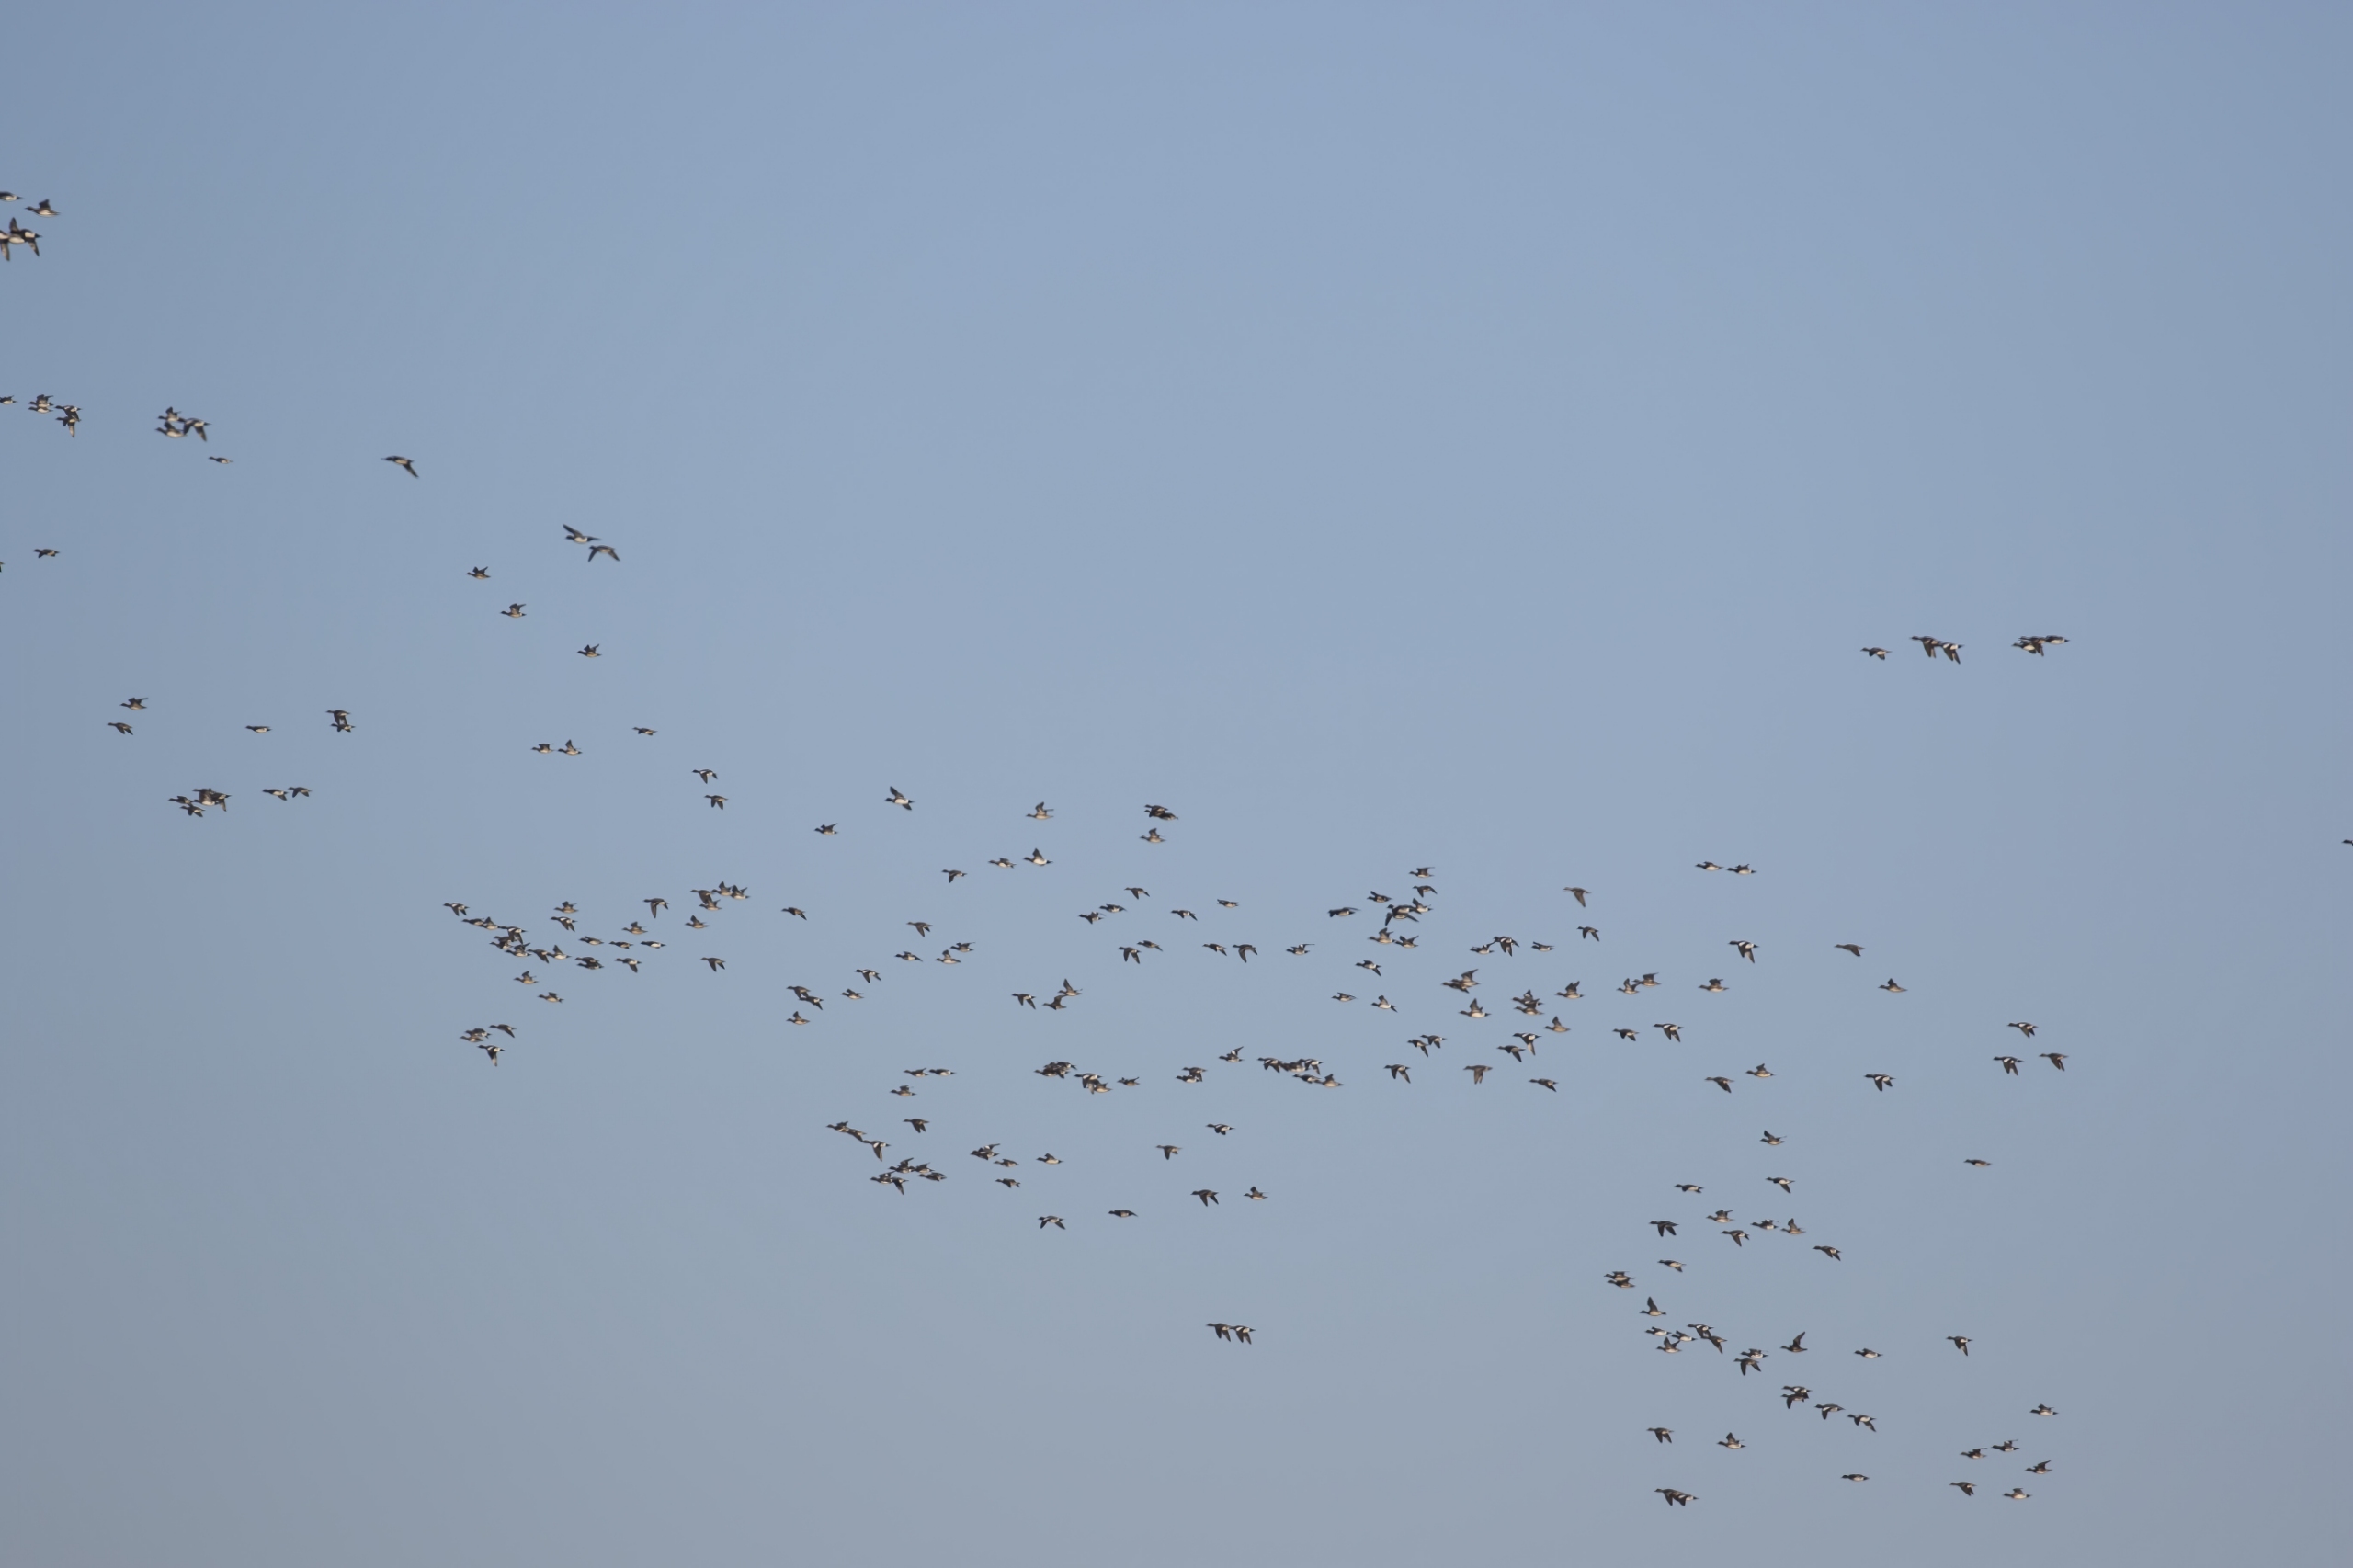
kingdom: Animalia
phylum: Chordata
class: Aves
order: Anseriformes
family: Anatidae
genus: Mareca
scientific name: Mareca penelope
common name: Pibeand
